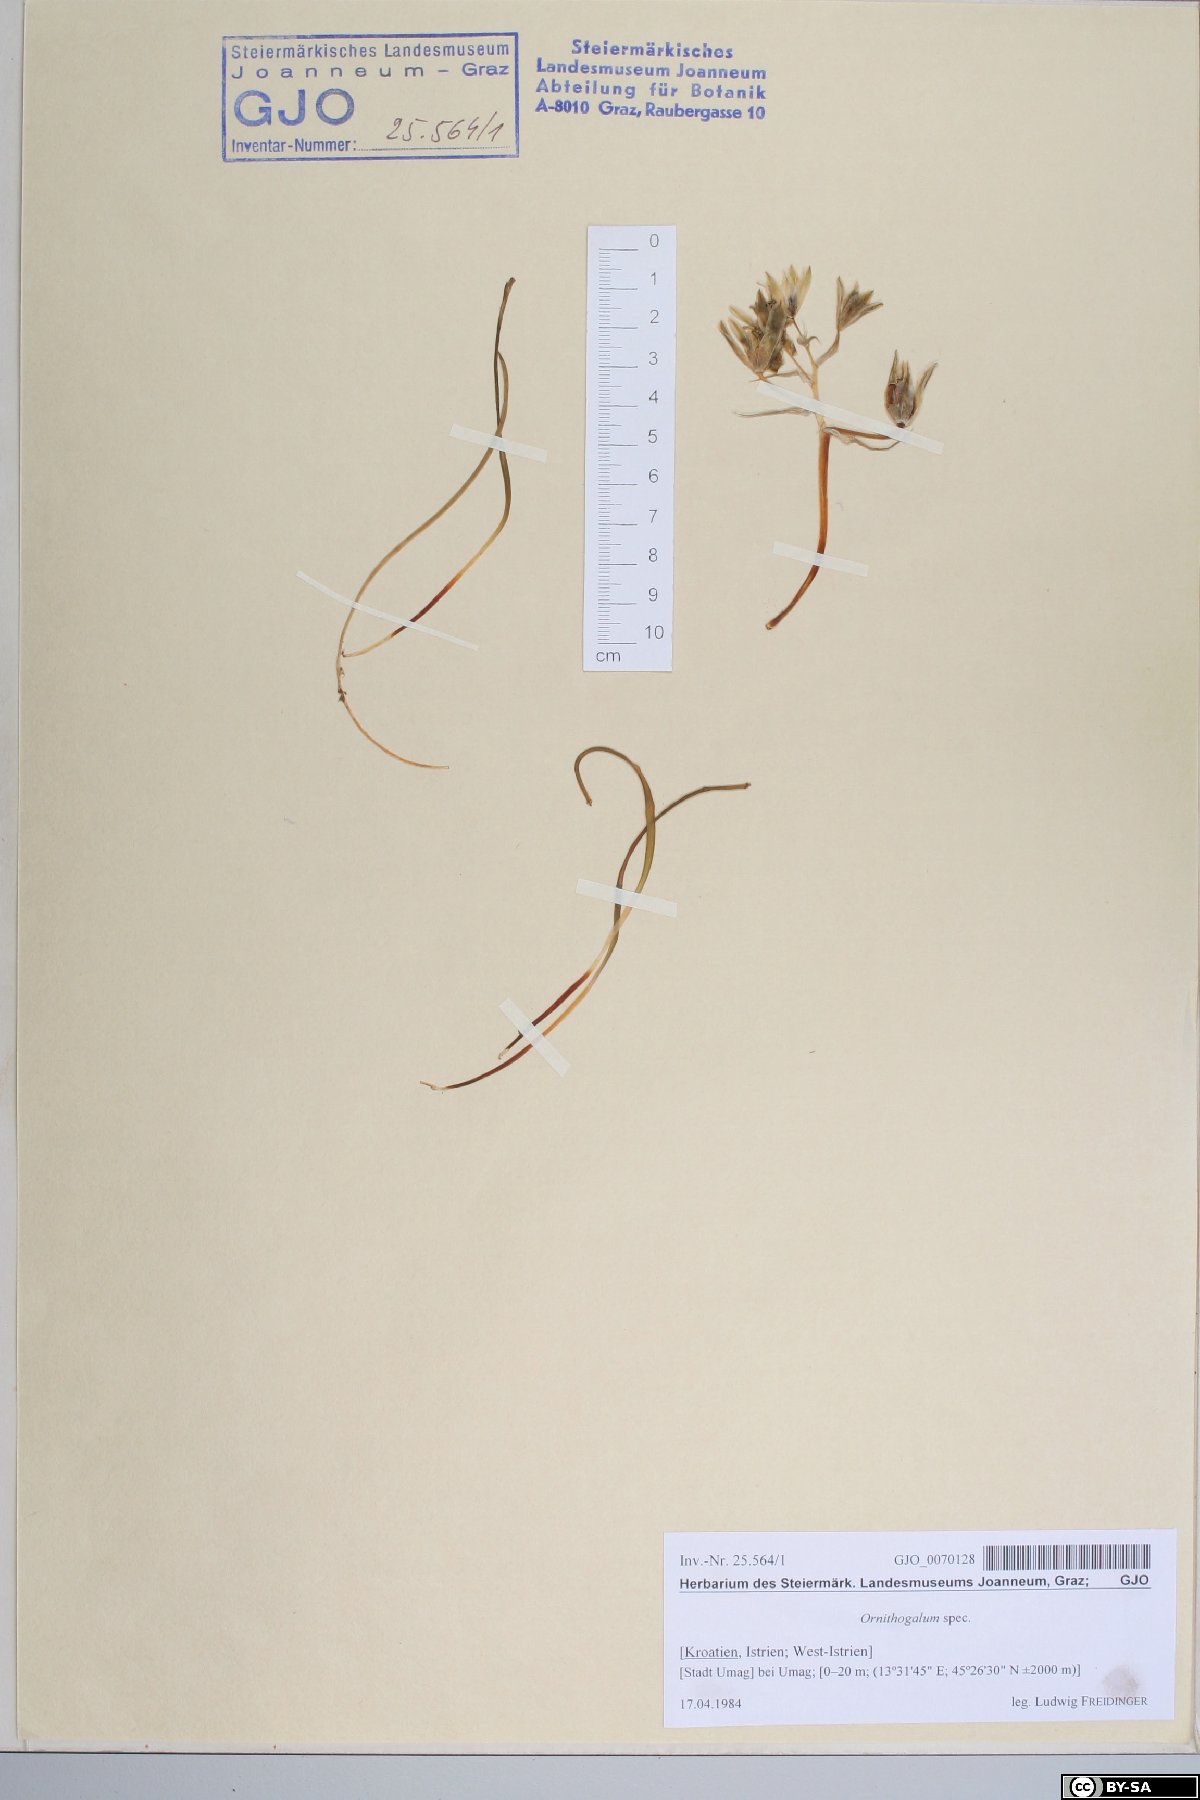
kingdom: Plantae
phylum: Tracheophyta
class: Liliopsida
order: Asparagales
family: Asparagaceae
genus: Ornithogalum
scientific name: Ornithogalum
